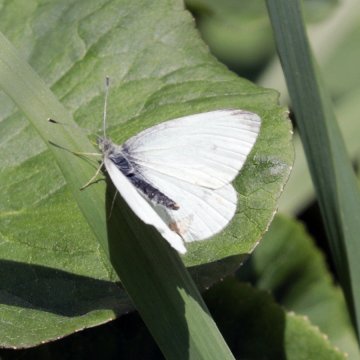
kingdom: Animalia
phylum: Arthropoda
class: Insecta
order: Lepidoptera
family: Pieridae
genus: Pieris
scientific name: Pieris rapae
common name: Cabbage White
